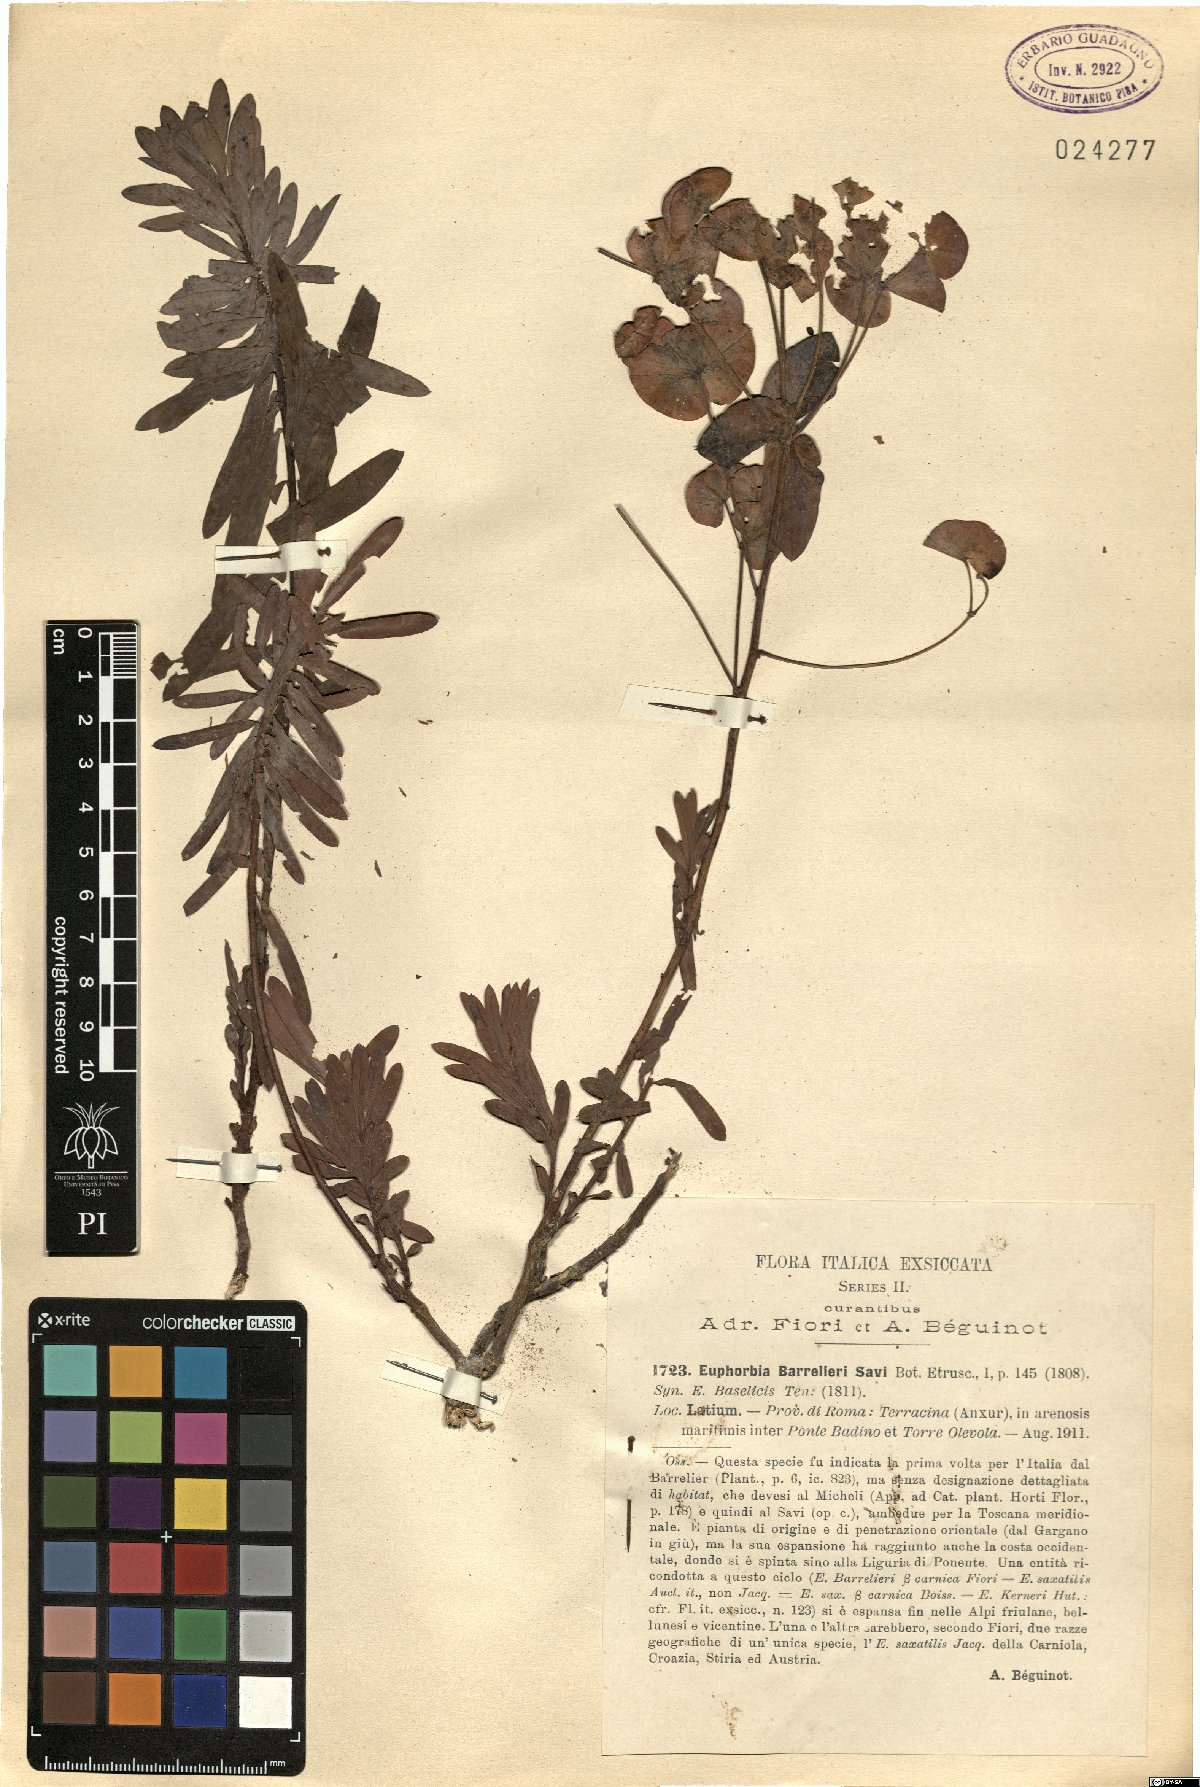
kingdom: Plantae
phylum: Tracheophyta
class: Magnoliopsida
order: Malpighiales
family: Euphorbiaceae
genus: Euphorbia
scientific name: Euphorbia barrelieri
